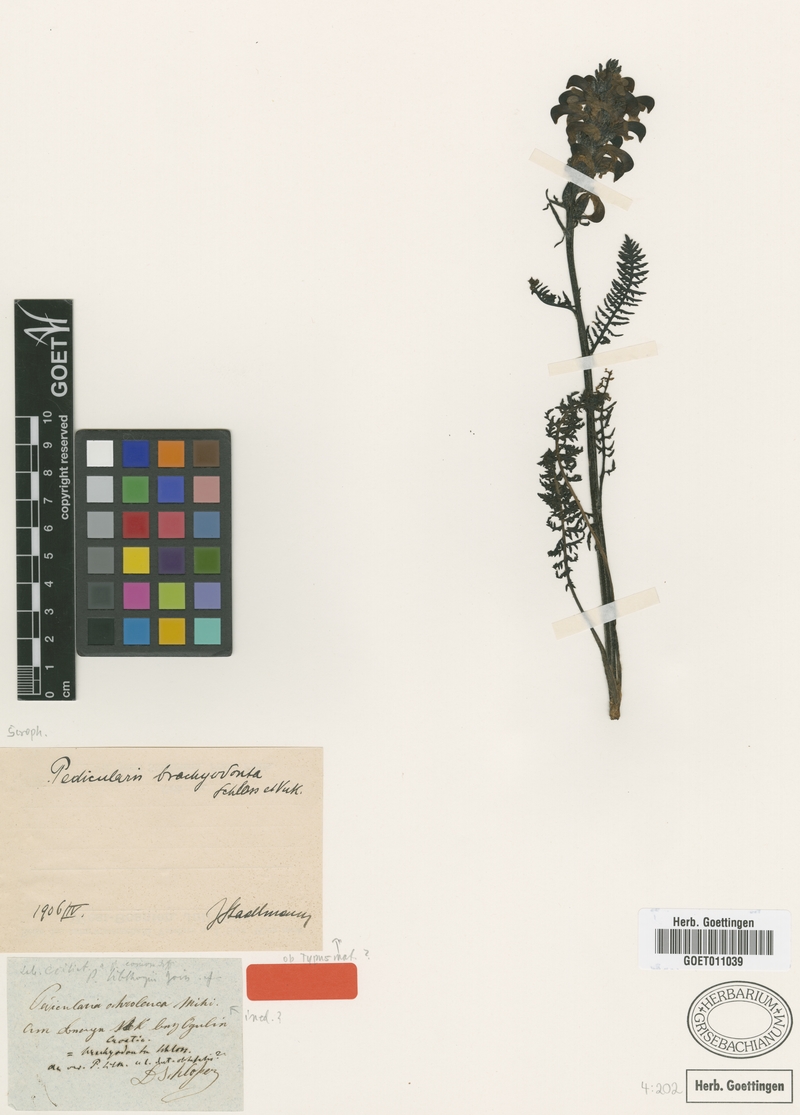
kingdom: Plantae
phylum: Tracheophyta
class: Magnoliopsida
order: Lamiales
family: Orobanchaceae
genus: Pedicularis
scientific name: Pedicularis brachyodonta
